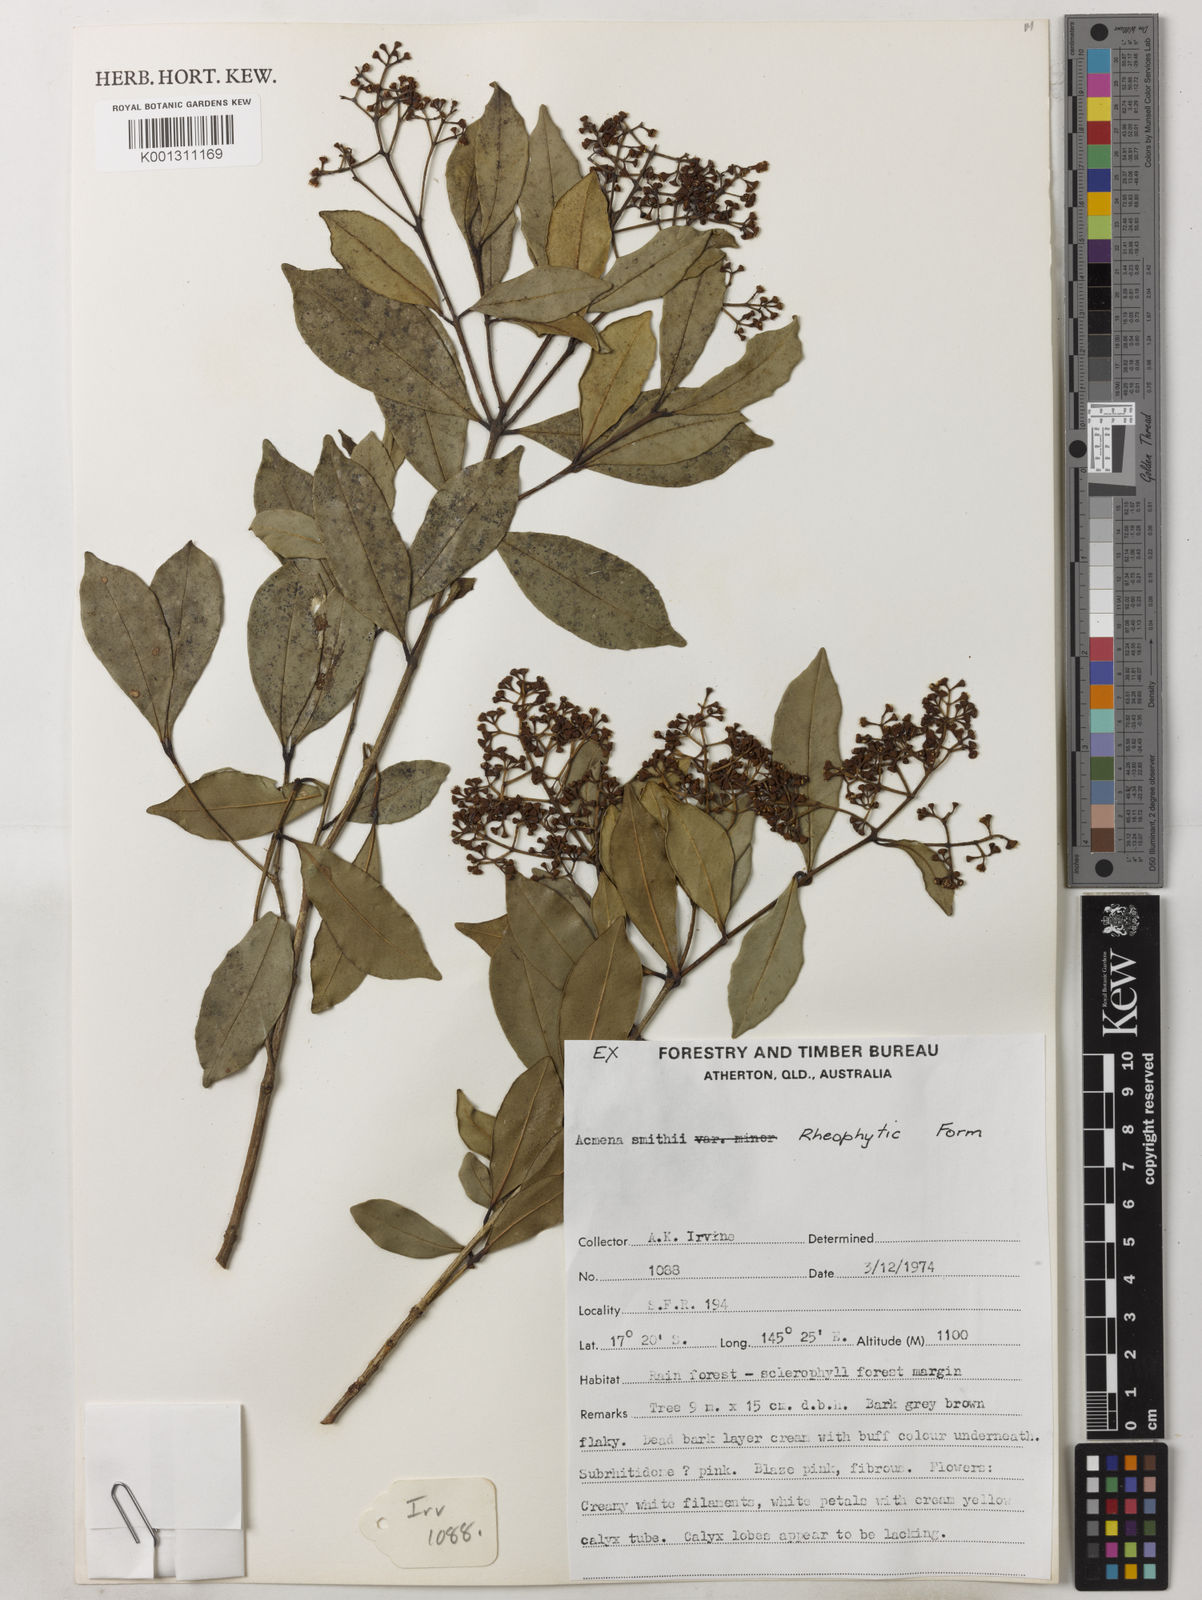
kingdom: Plantae
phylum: Tracheophyta
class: Magnoliopsida
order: Myrtales
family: Myrtaceae
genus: Syzygium
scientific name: Syzygium smithii
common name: Lilly-pilly
